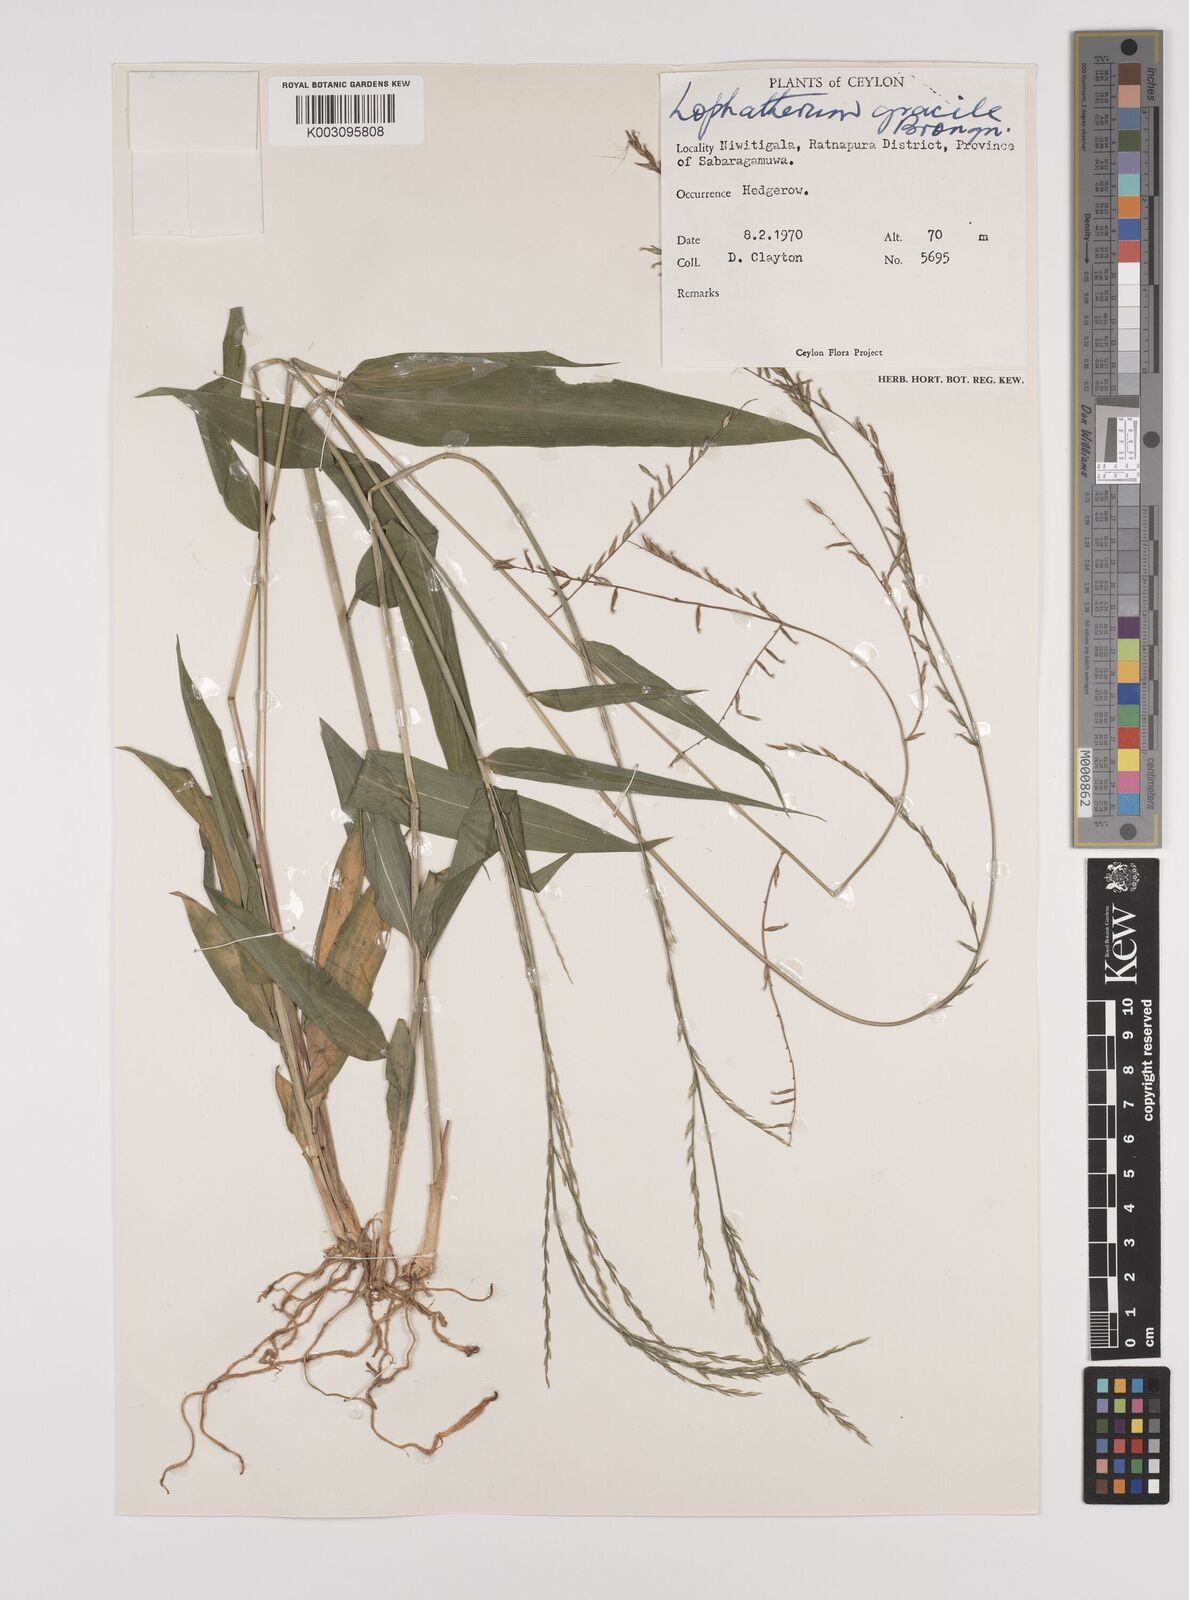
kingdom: Plantae
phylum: Tracheophyta
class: Liliopsida
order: Poales
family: Poaceae
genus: Lophatherum
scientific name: Lophatherum gracile
